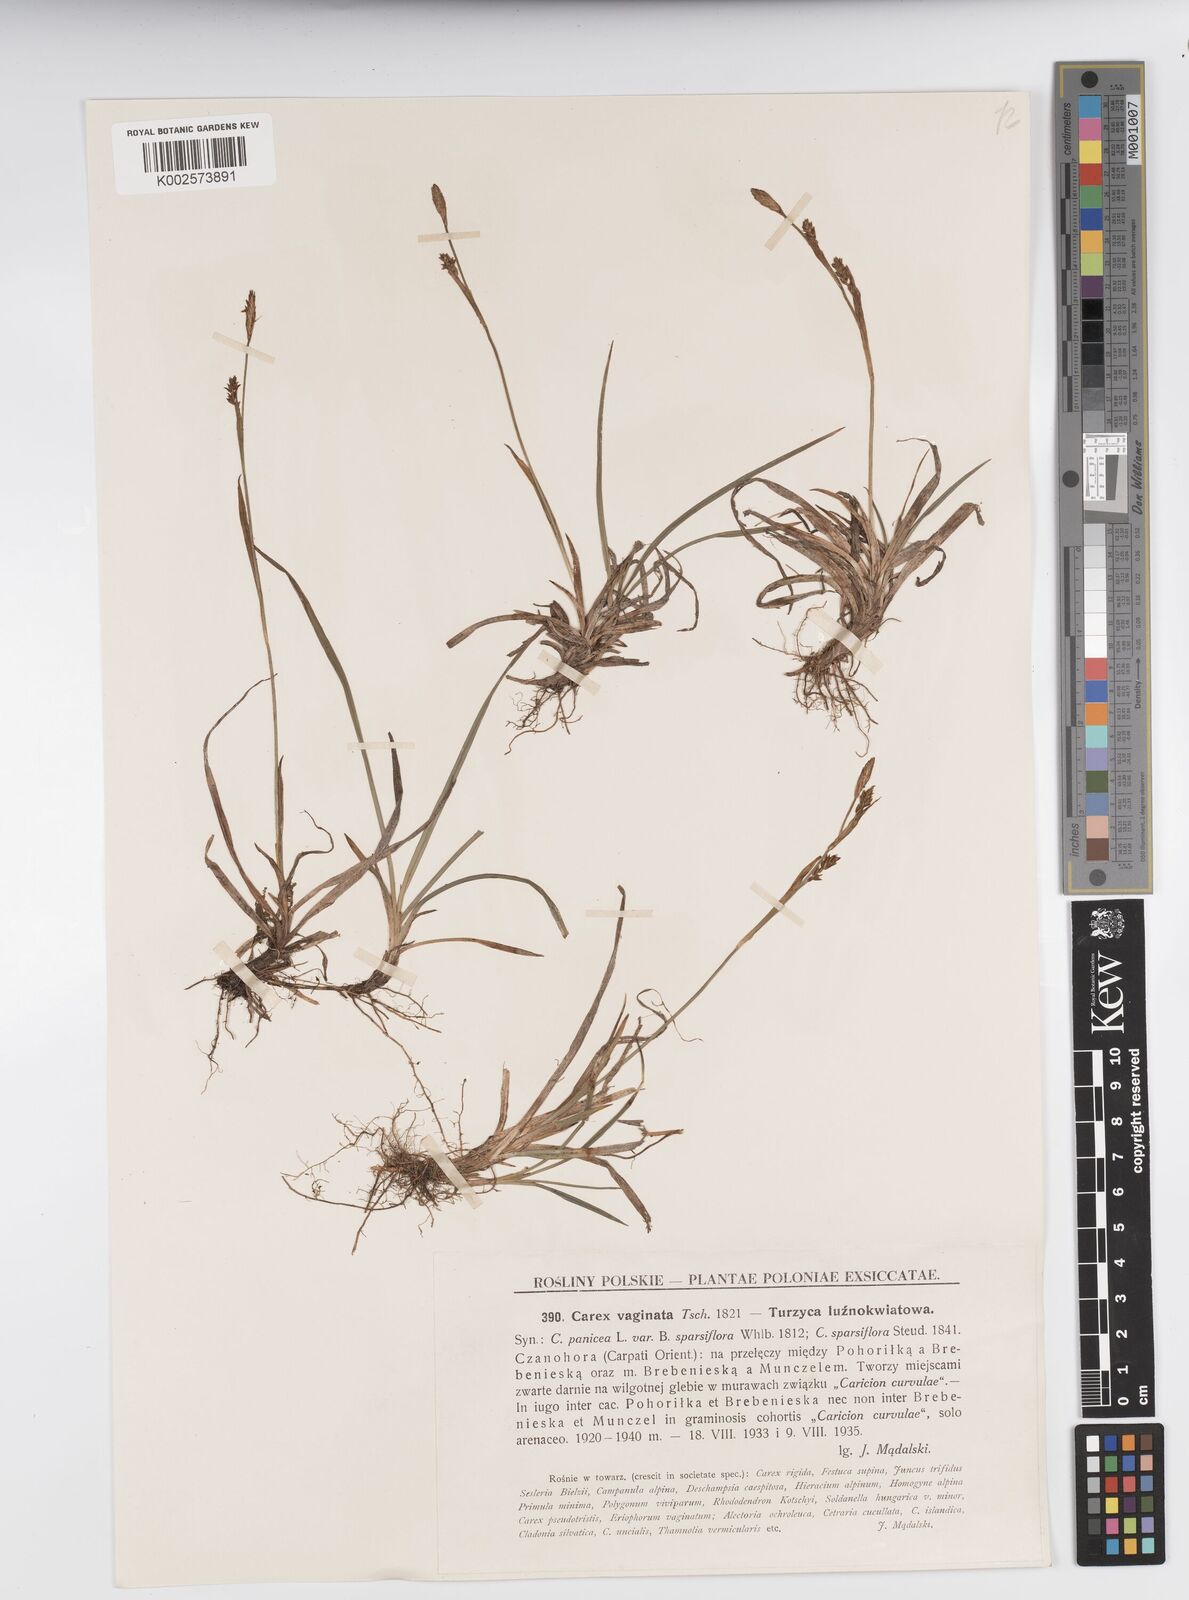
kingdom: Plantae
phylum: Tracheophyta
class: Liliopsida
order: Poales
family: Cyperaceae
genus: Carex
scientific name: Carex vaginata
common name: Sheathed sedge
